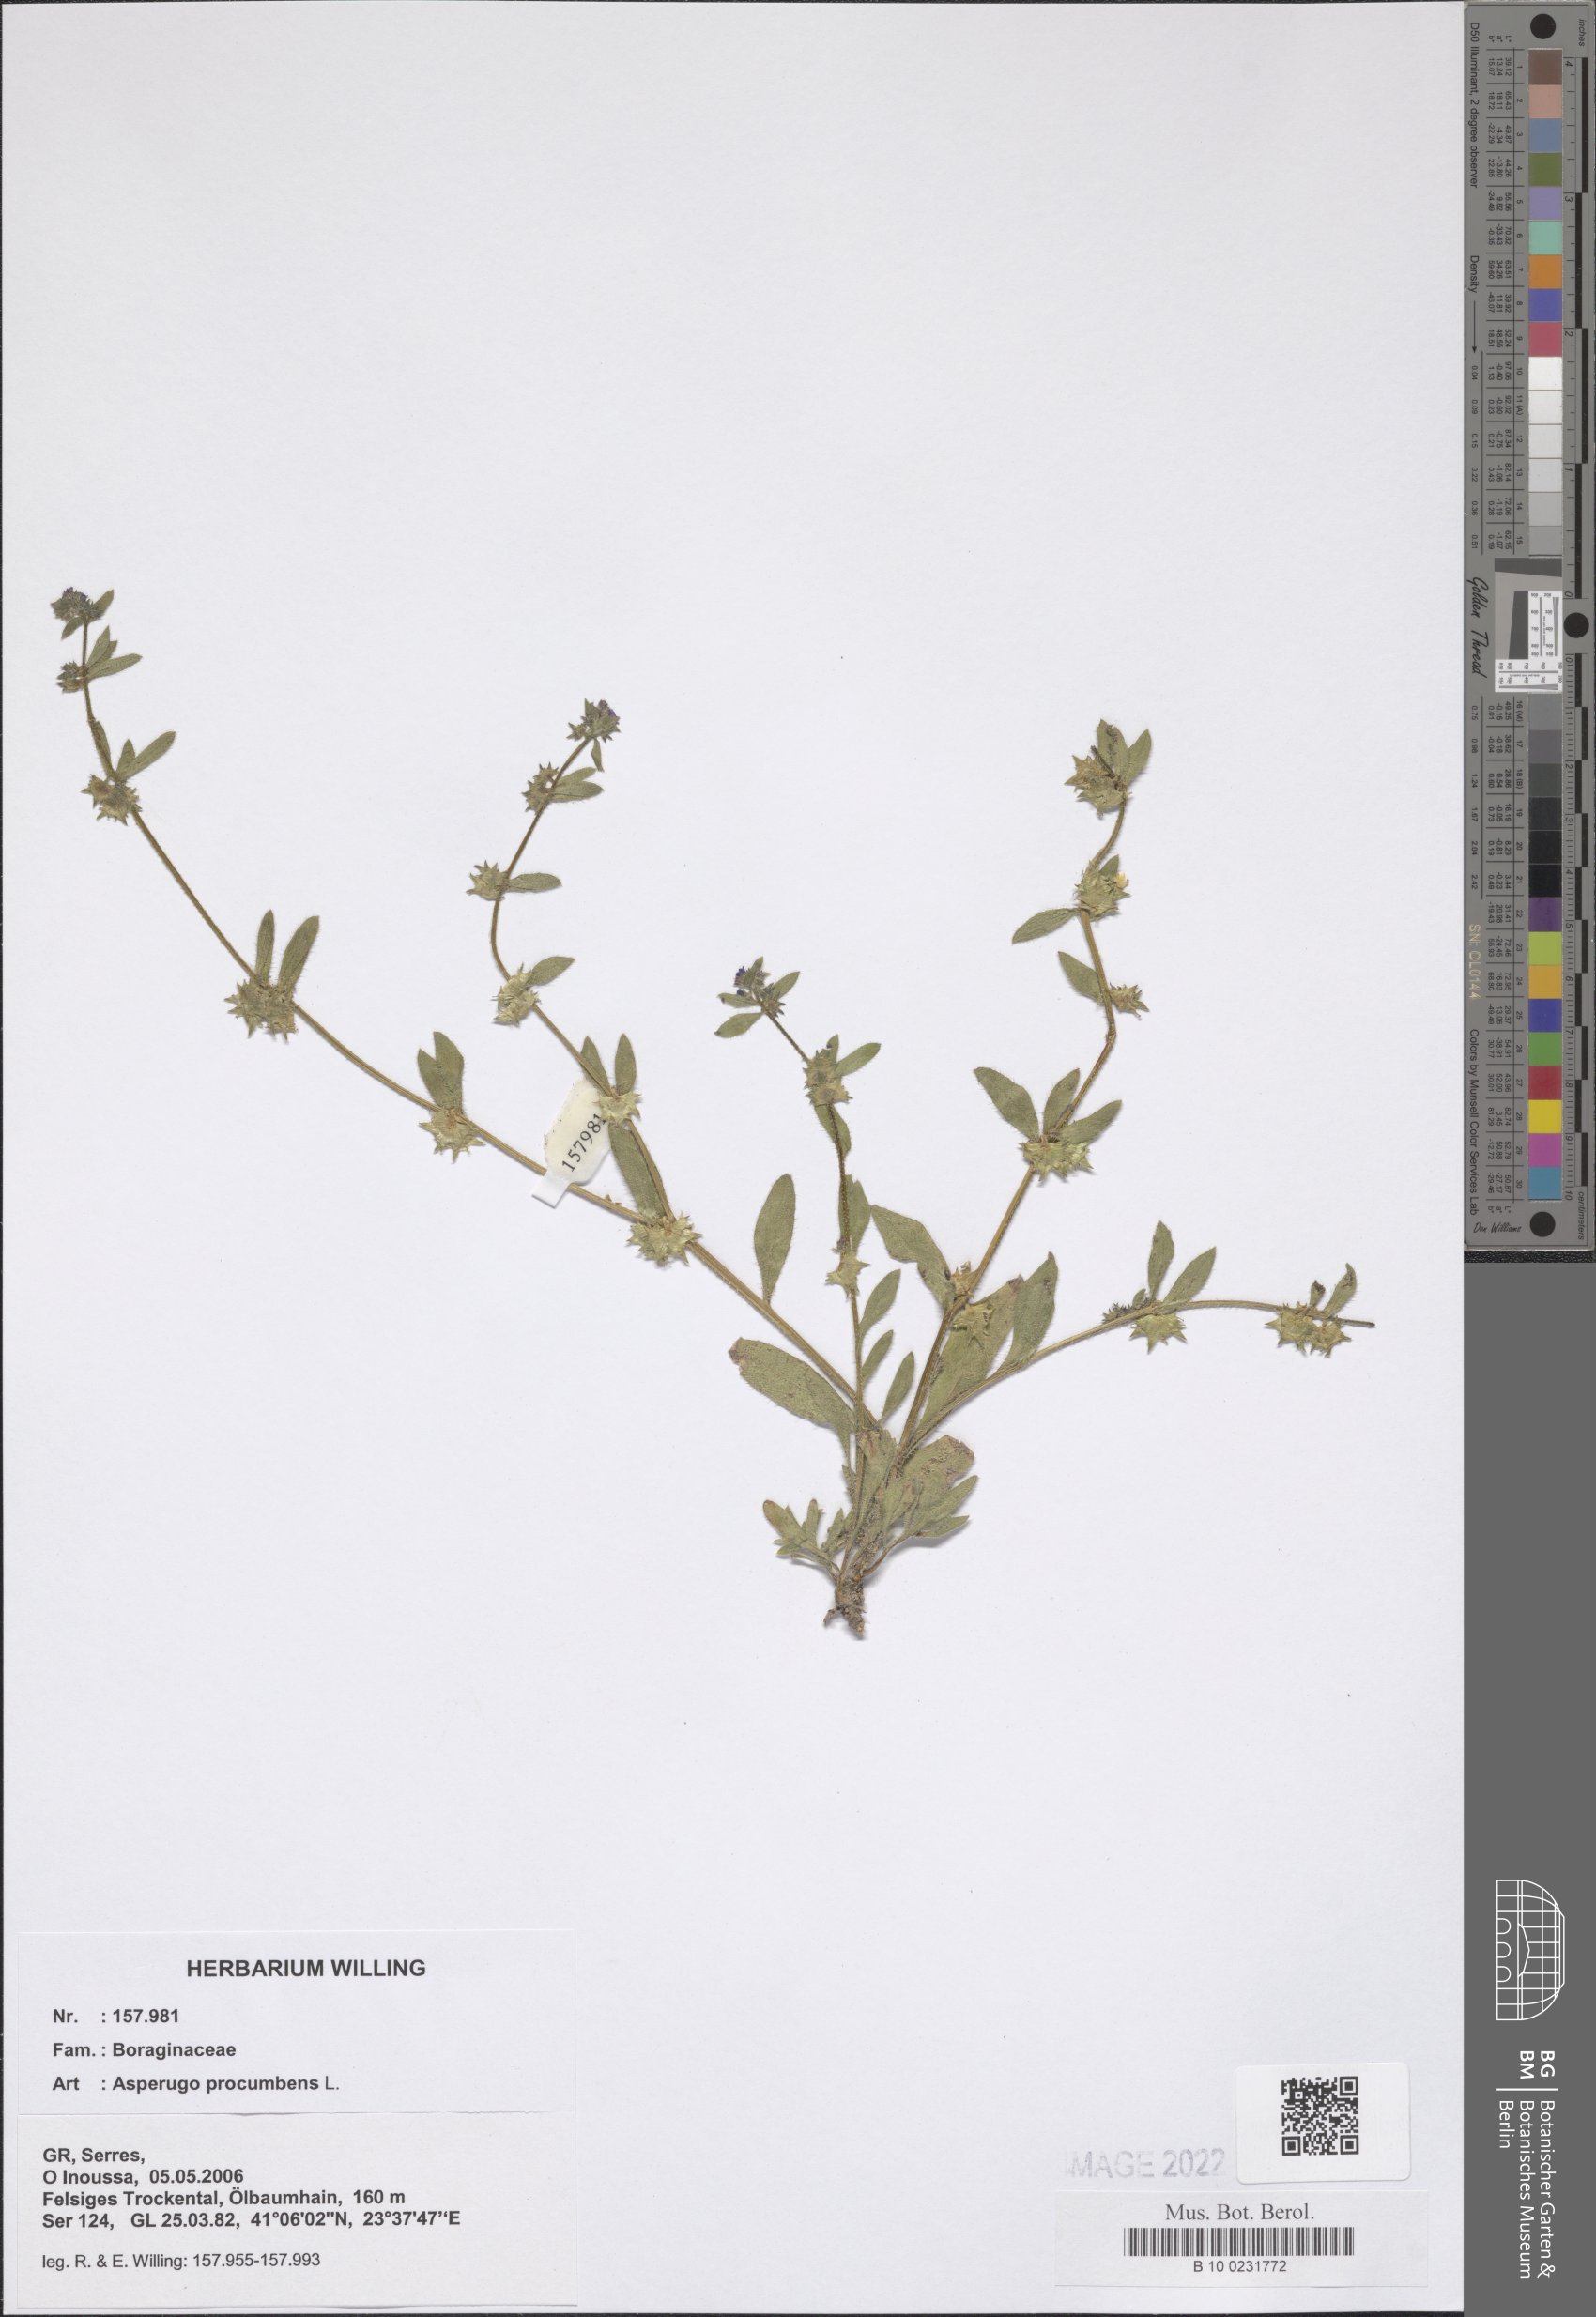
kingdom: Plantae
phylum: Tracheophyta
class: Magnoliopsida
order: Boraginales
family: Boraginaceae
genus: Asperugo
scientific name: Asperugo procumbens
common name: Madwort
